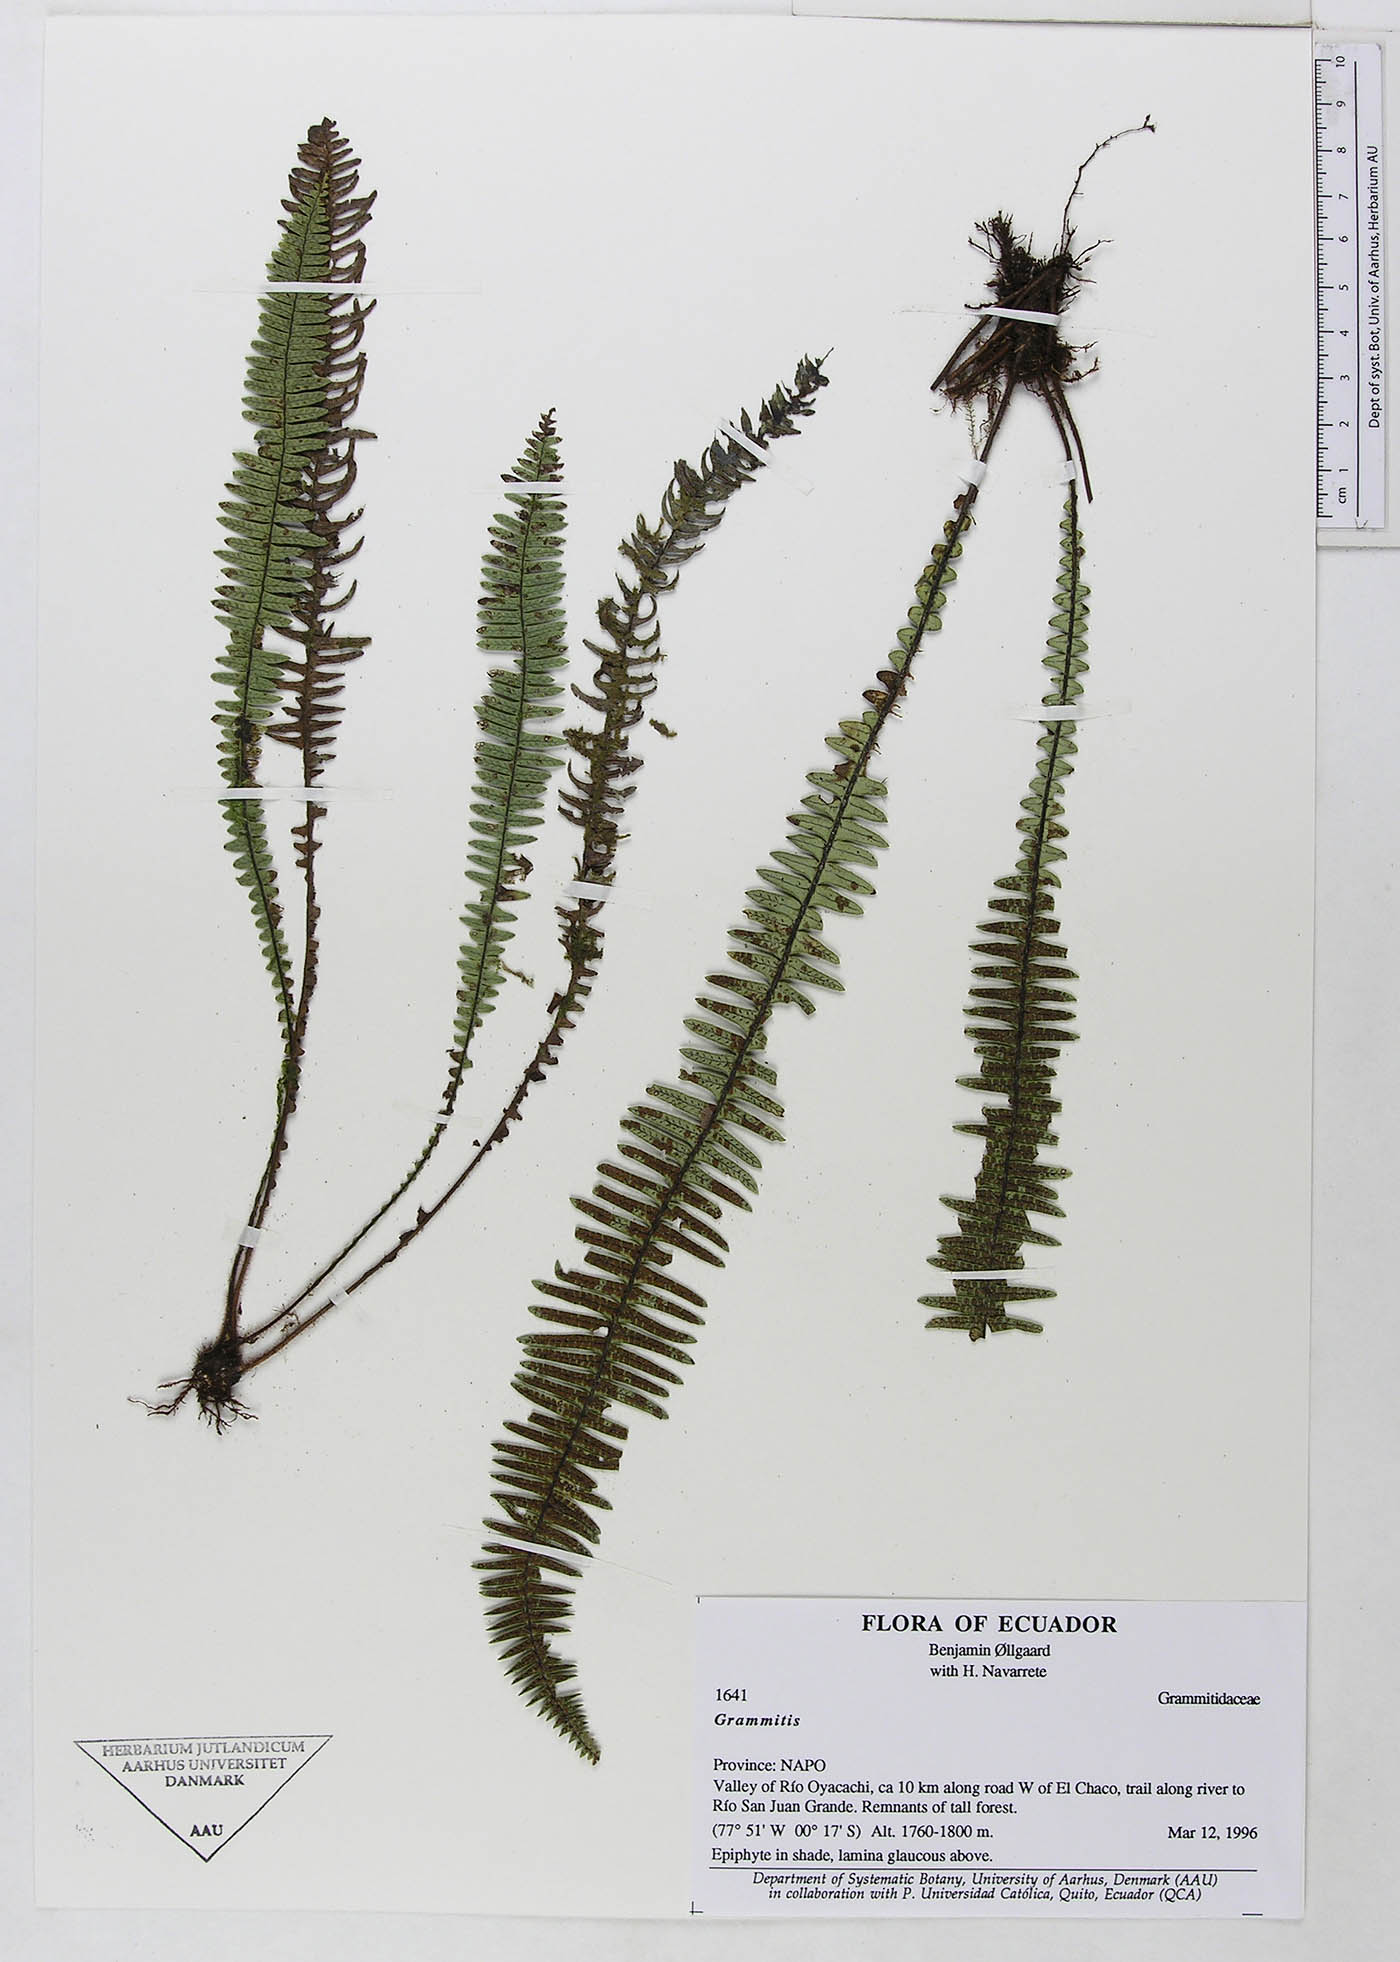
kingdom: Plantae
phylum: Tracheophyta
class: Polypodiopsida
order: Polypodiales
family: Polypodiaceae
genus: Ascogrammitis
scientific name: Ascogrammitis loxensis
